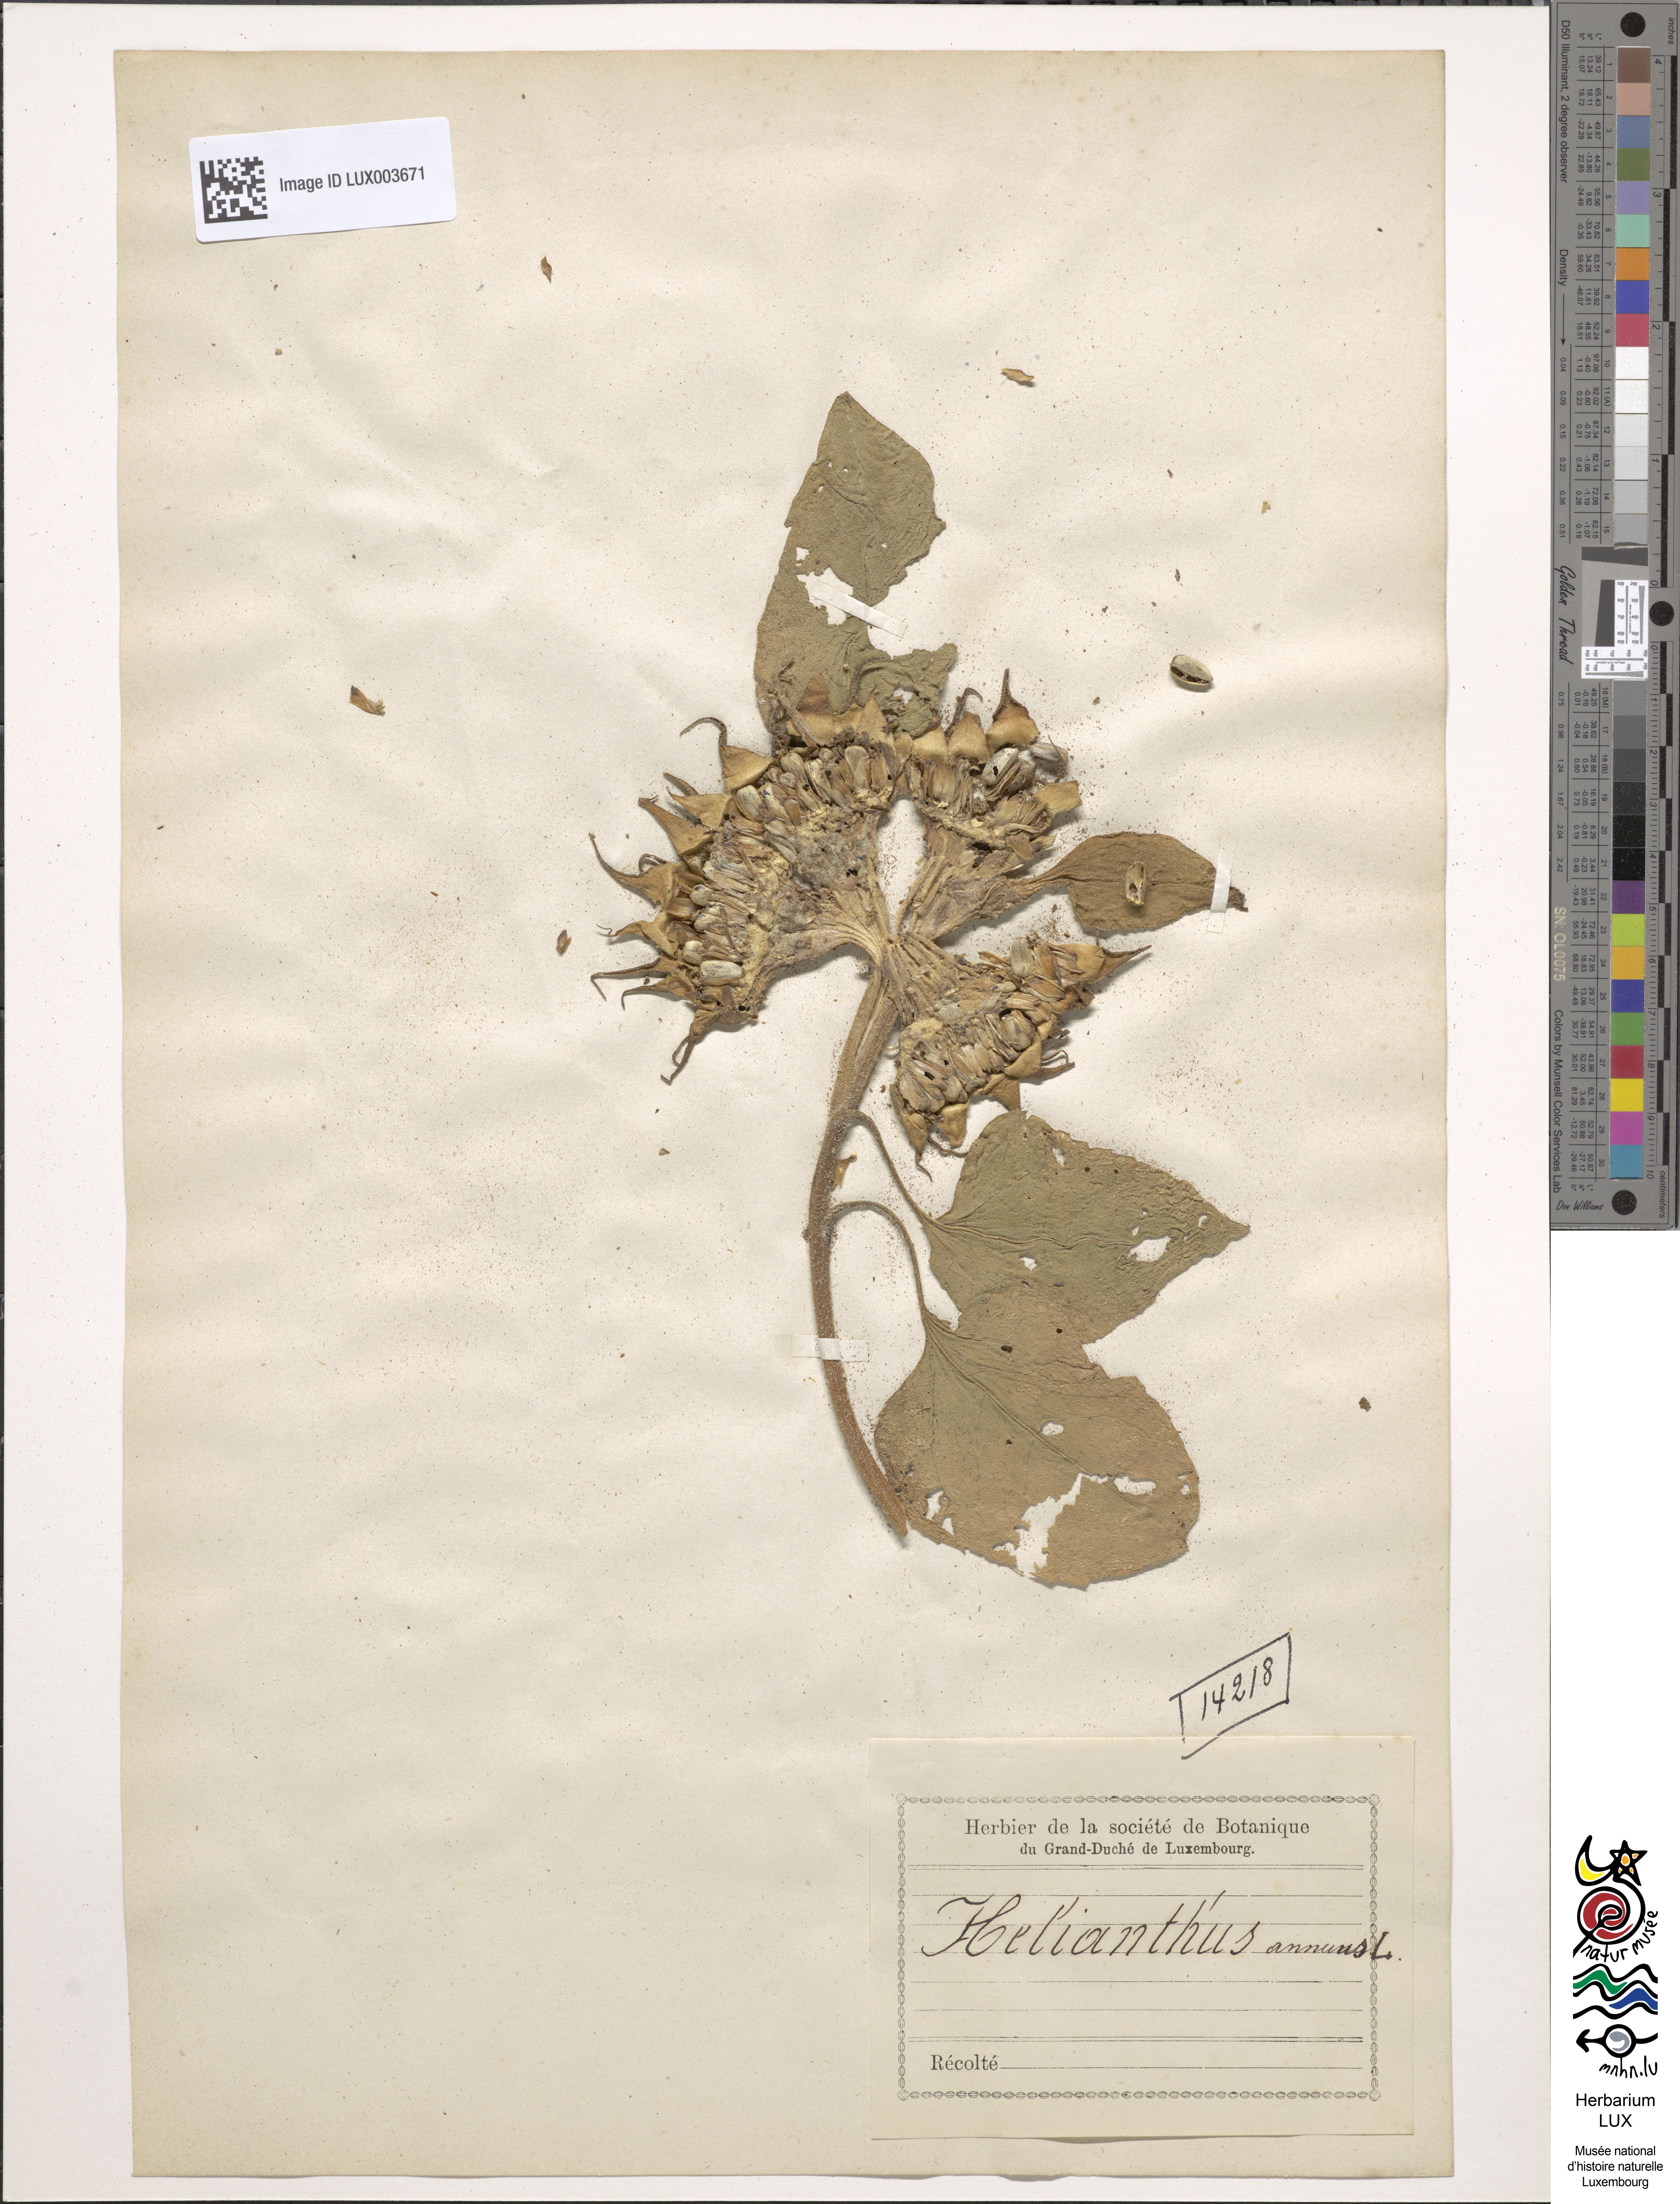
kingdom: Plantae
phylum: Tracheophyta
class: Magnoliopsida
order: Asterales
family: Asteraceae
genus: Helianthus
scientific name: Helianthus annuus
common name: Sunflower
